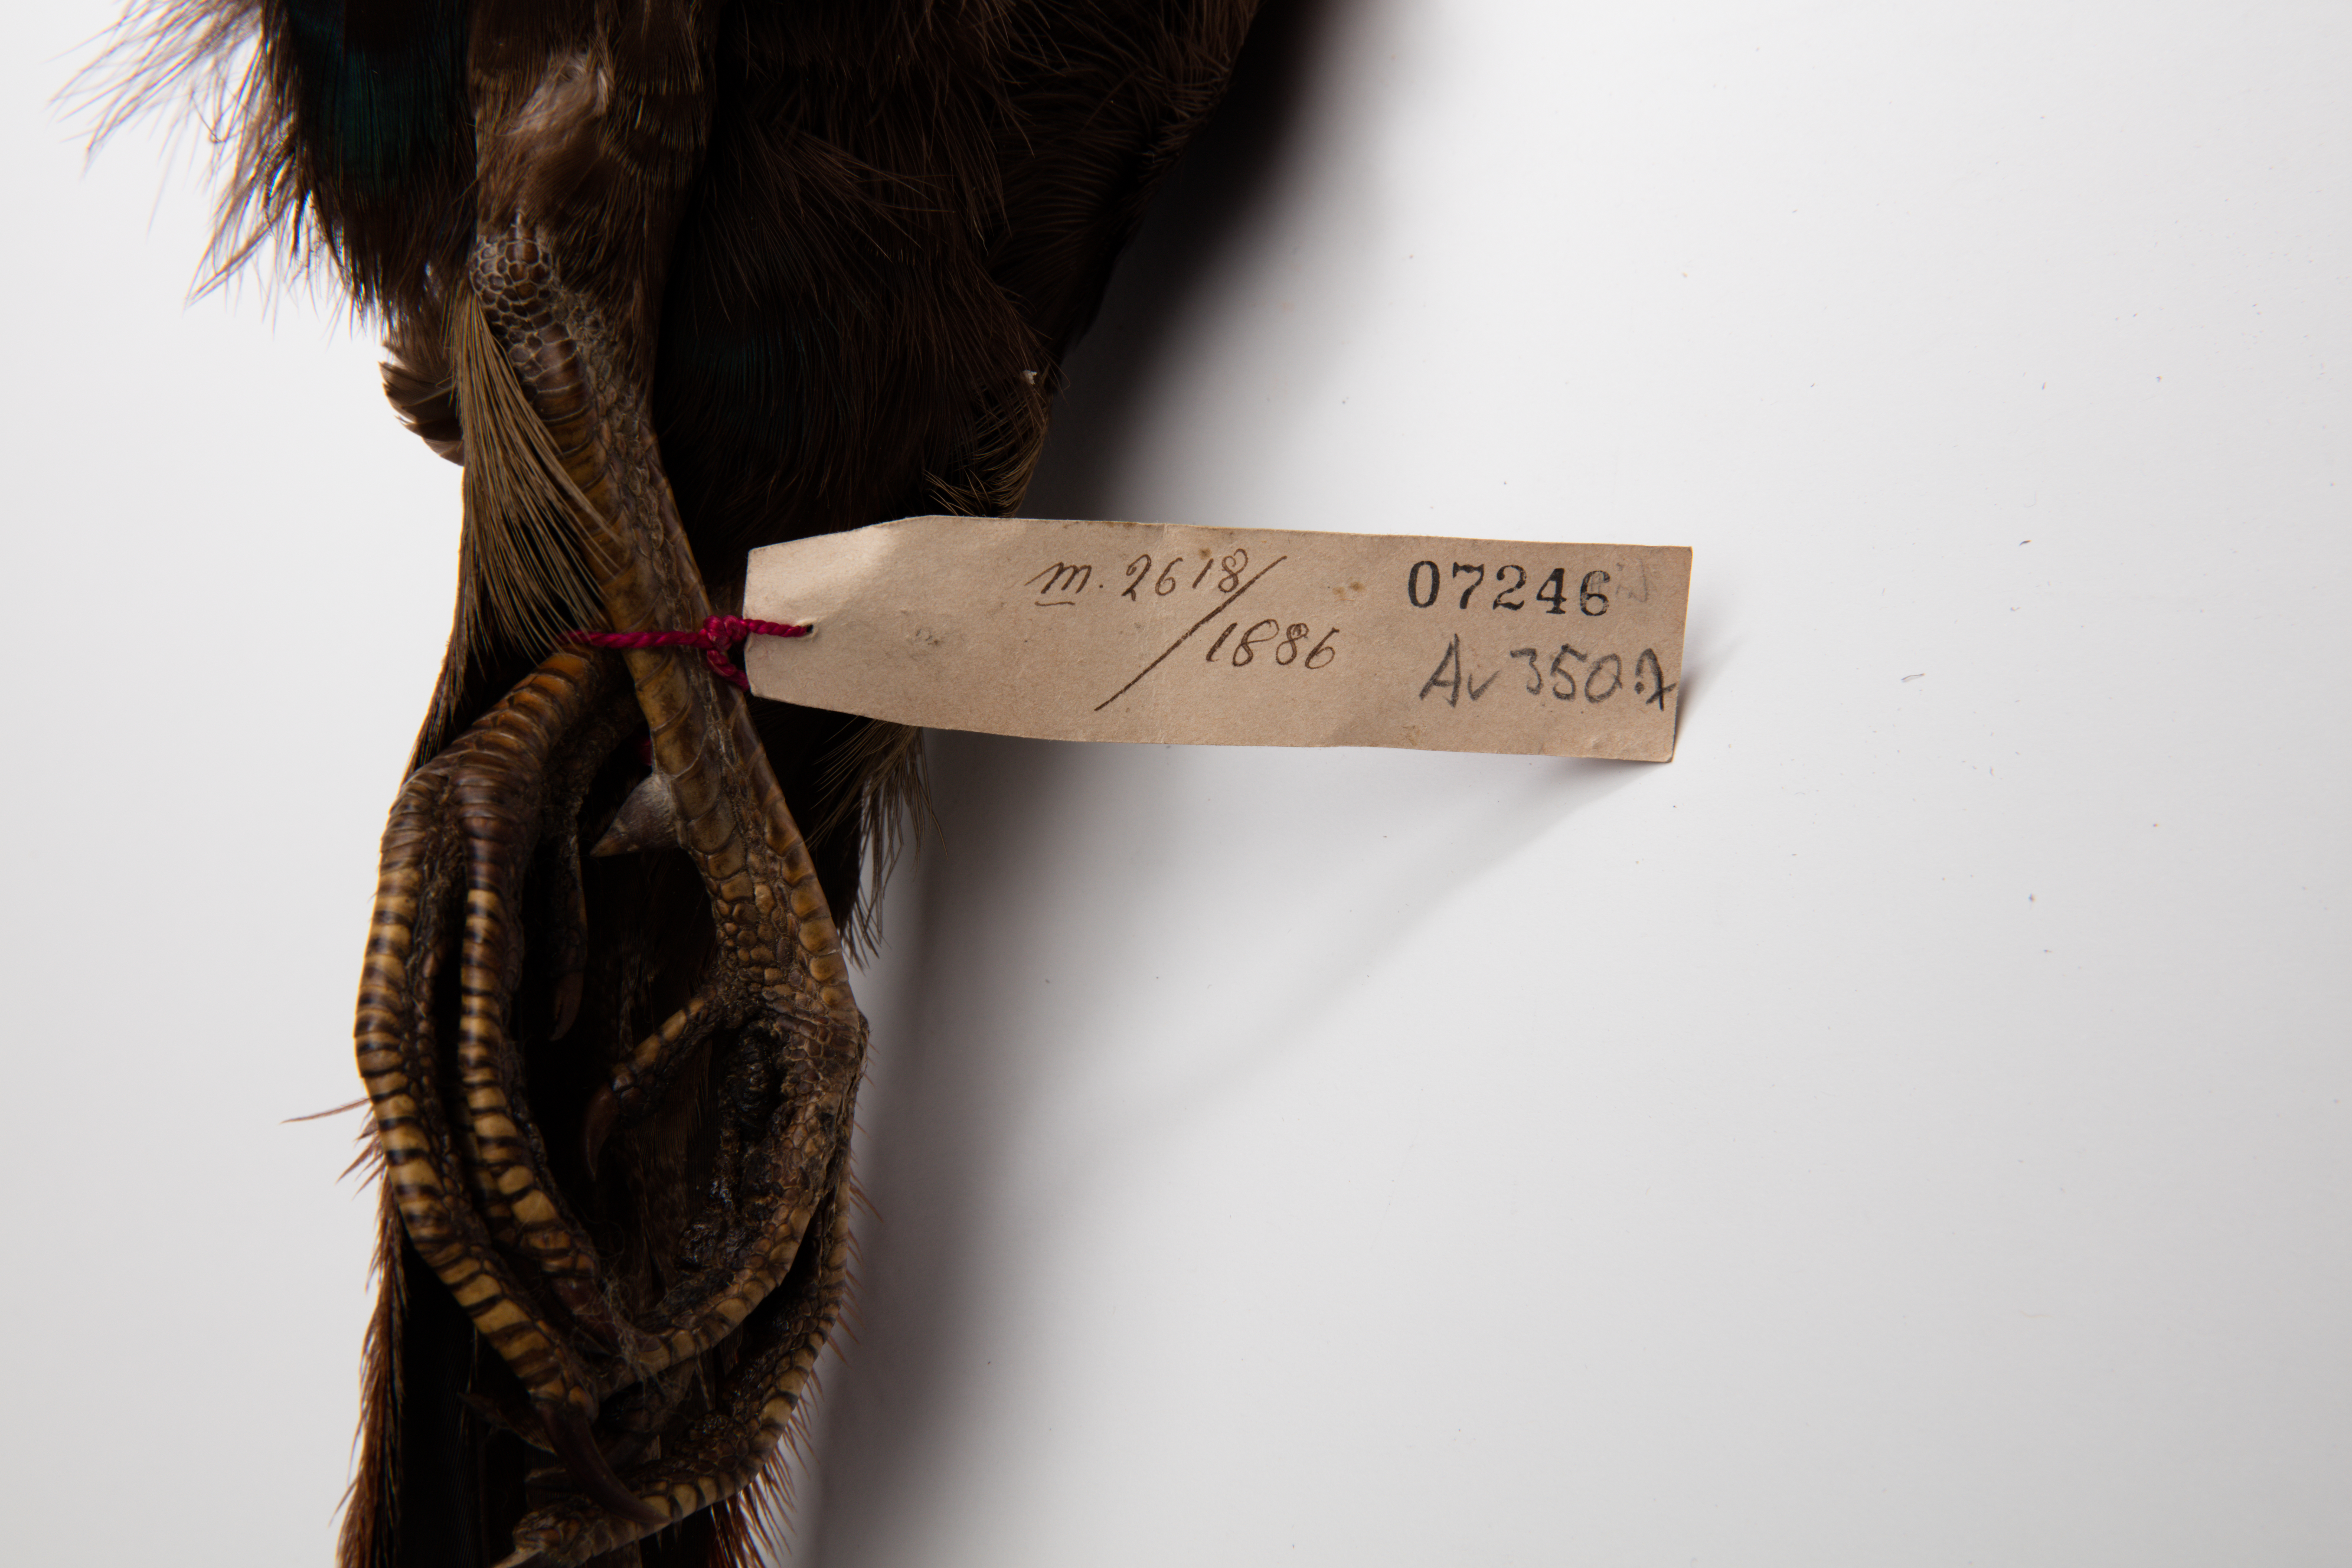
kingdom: Animalia
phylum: Chordata
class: Aves
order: Galliformes
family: Phasianidae
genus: Phasianus
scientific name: Phasianus versicolor
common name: Green pheasant
